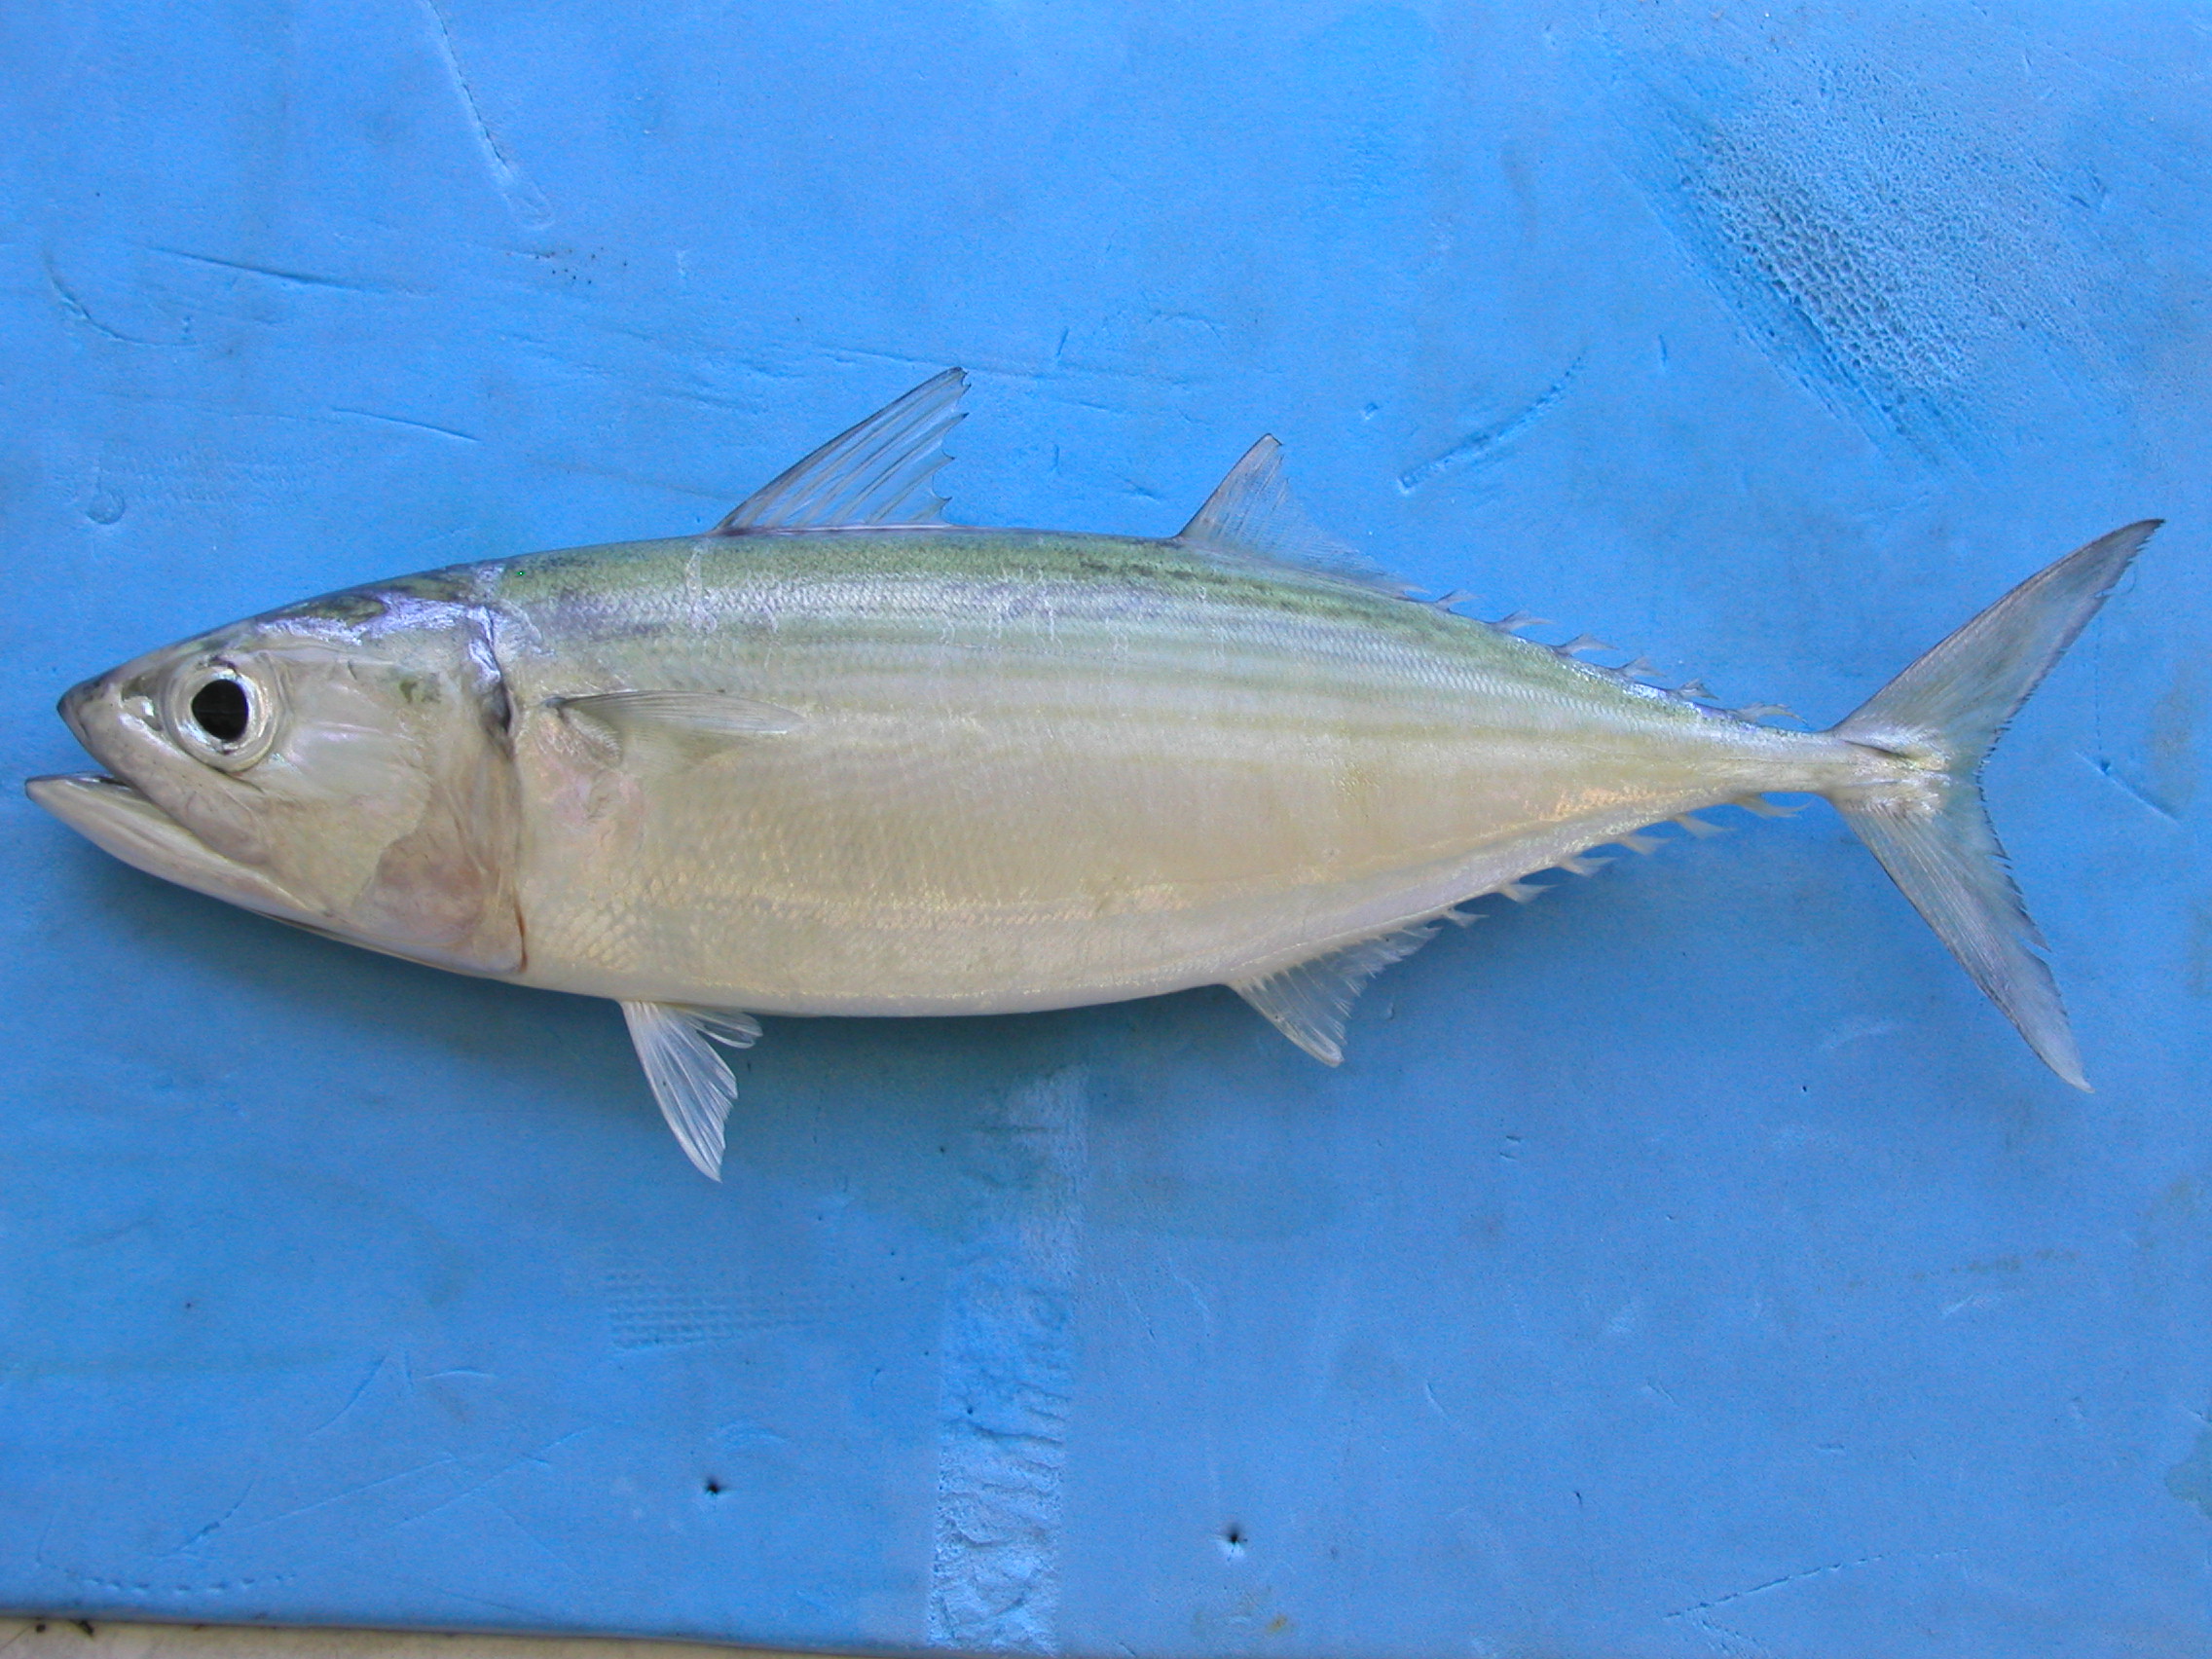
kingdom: Animalia
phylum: Chordata
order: Perciformes
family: Scombridae
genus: Rastrelliger
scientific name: Rastrelliger kanagurta
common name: Indian mackerel
